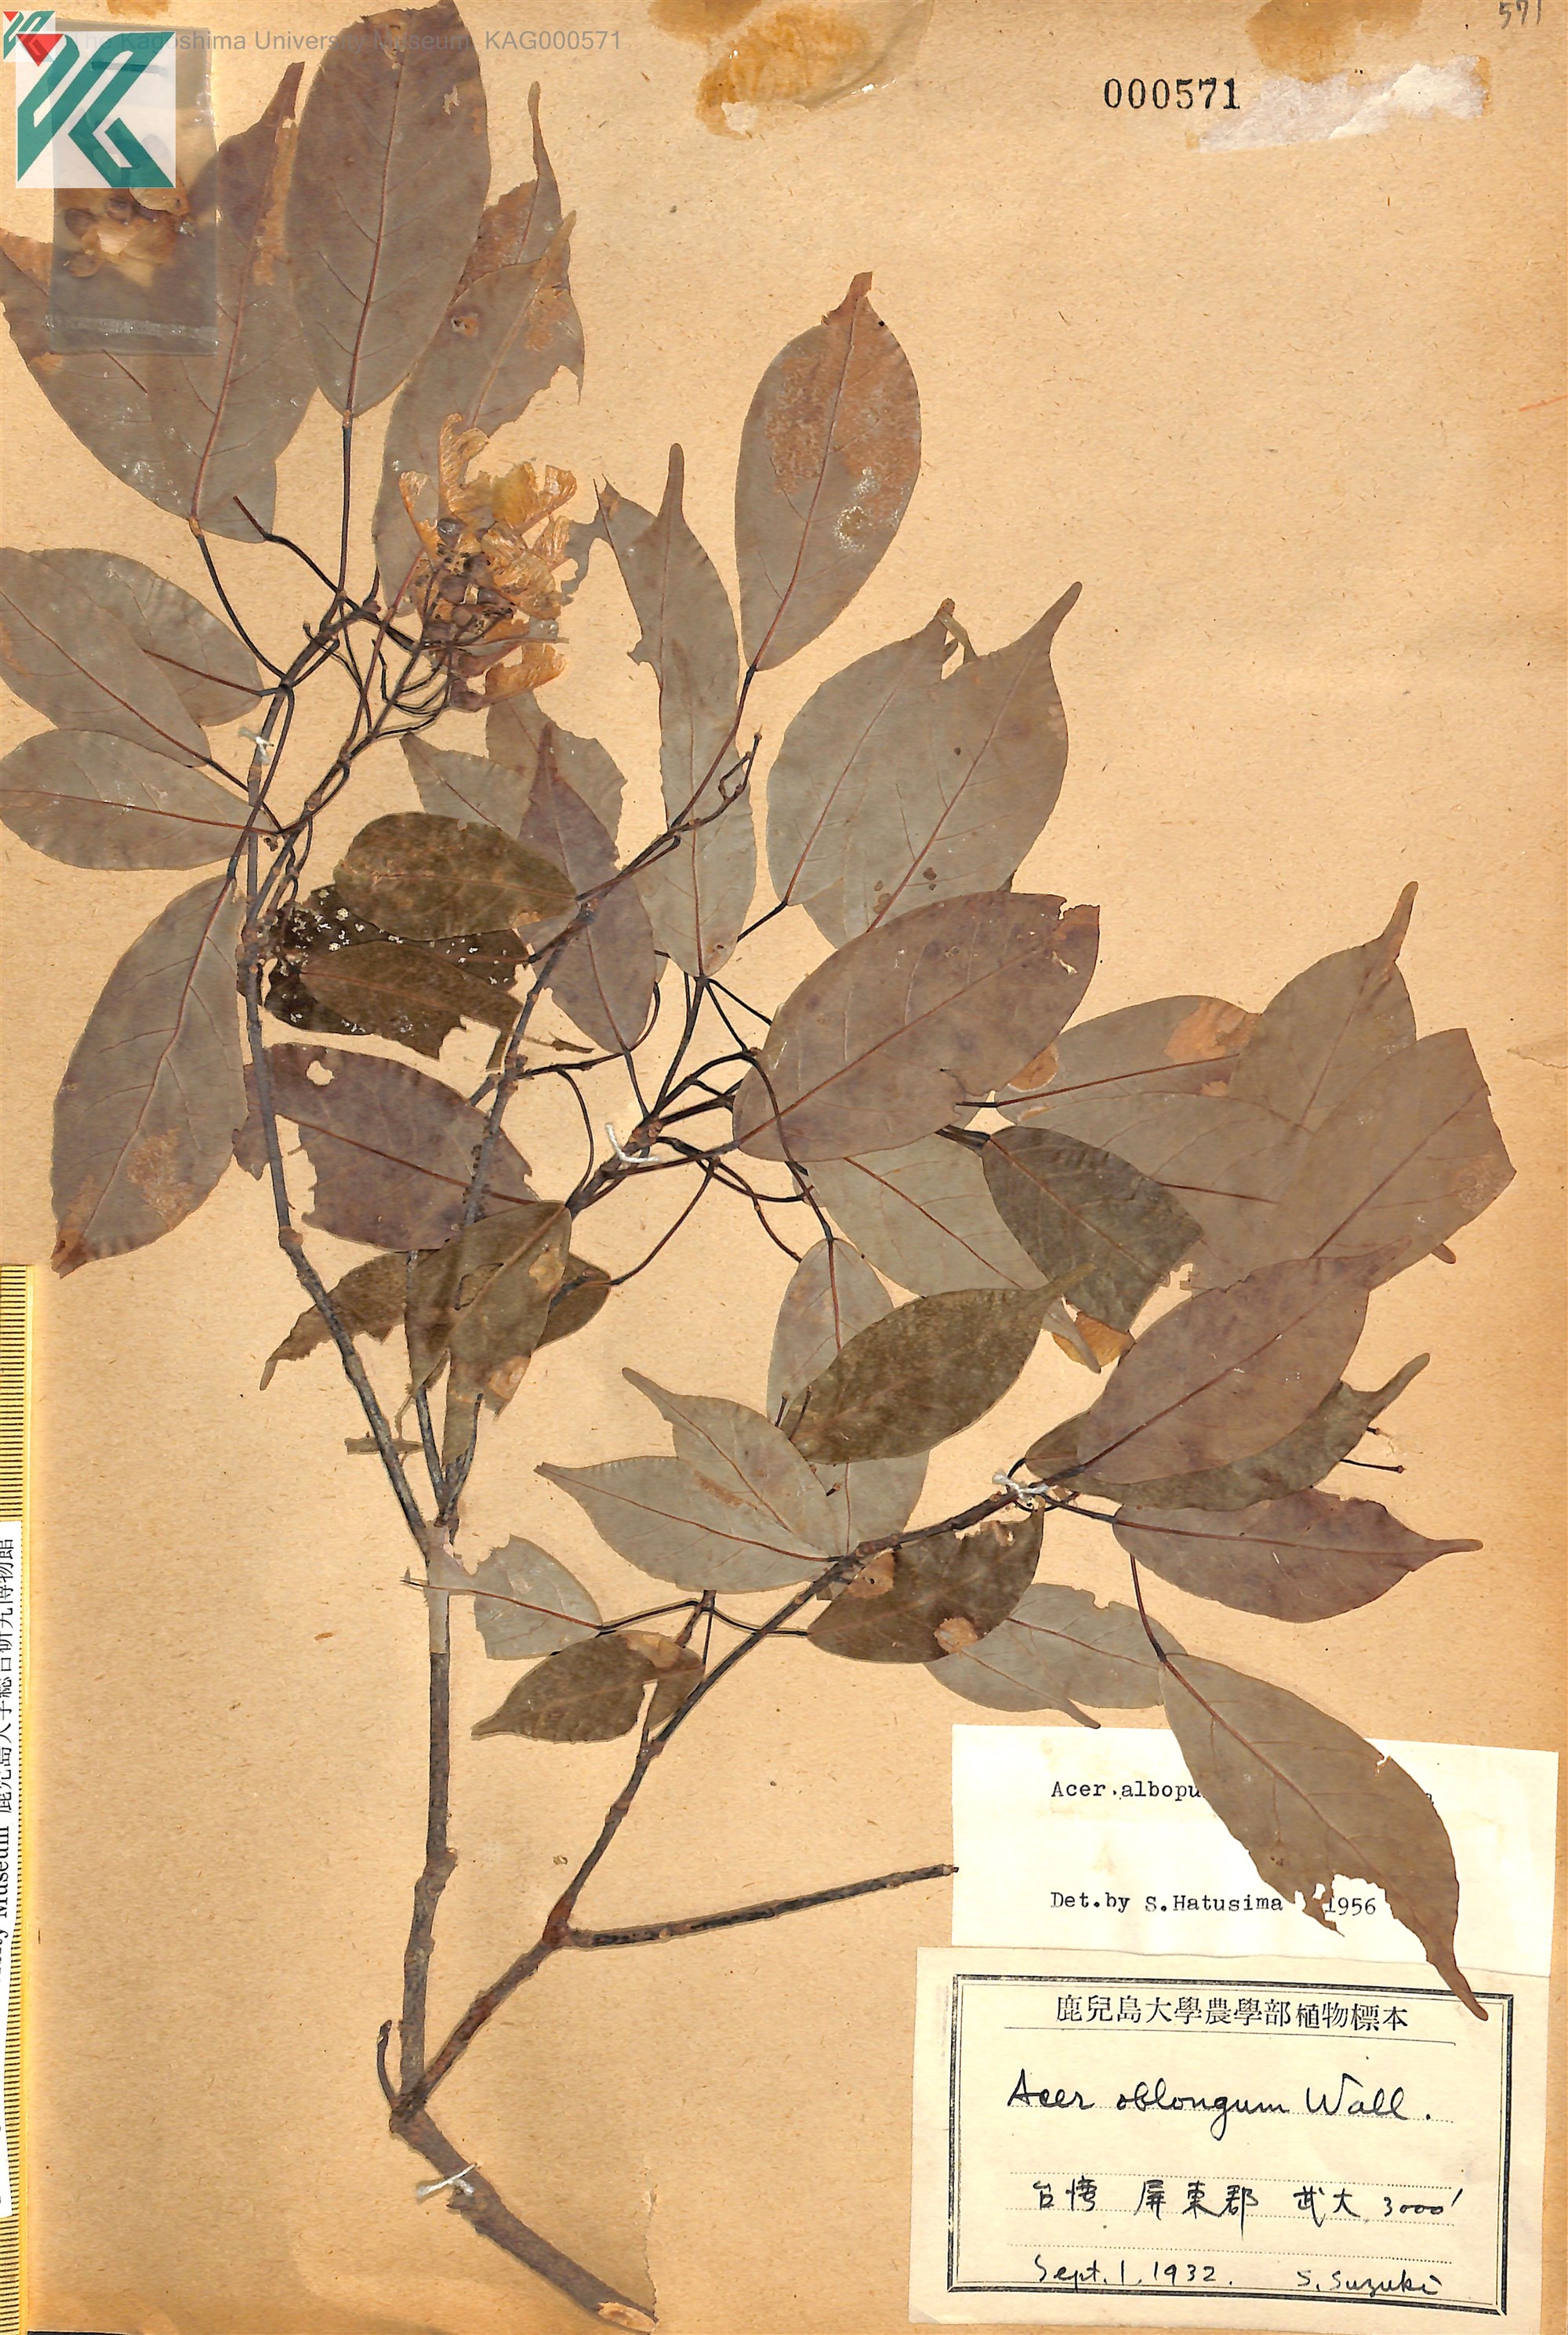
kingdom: Plantae
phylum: Tracheophyta
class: Magnoliopsida
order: Sapindales
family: Sapindaceae
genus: Acer
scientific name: Acer oblongum
